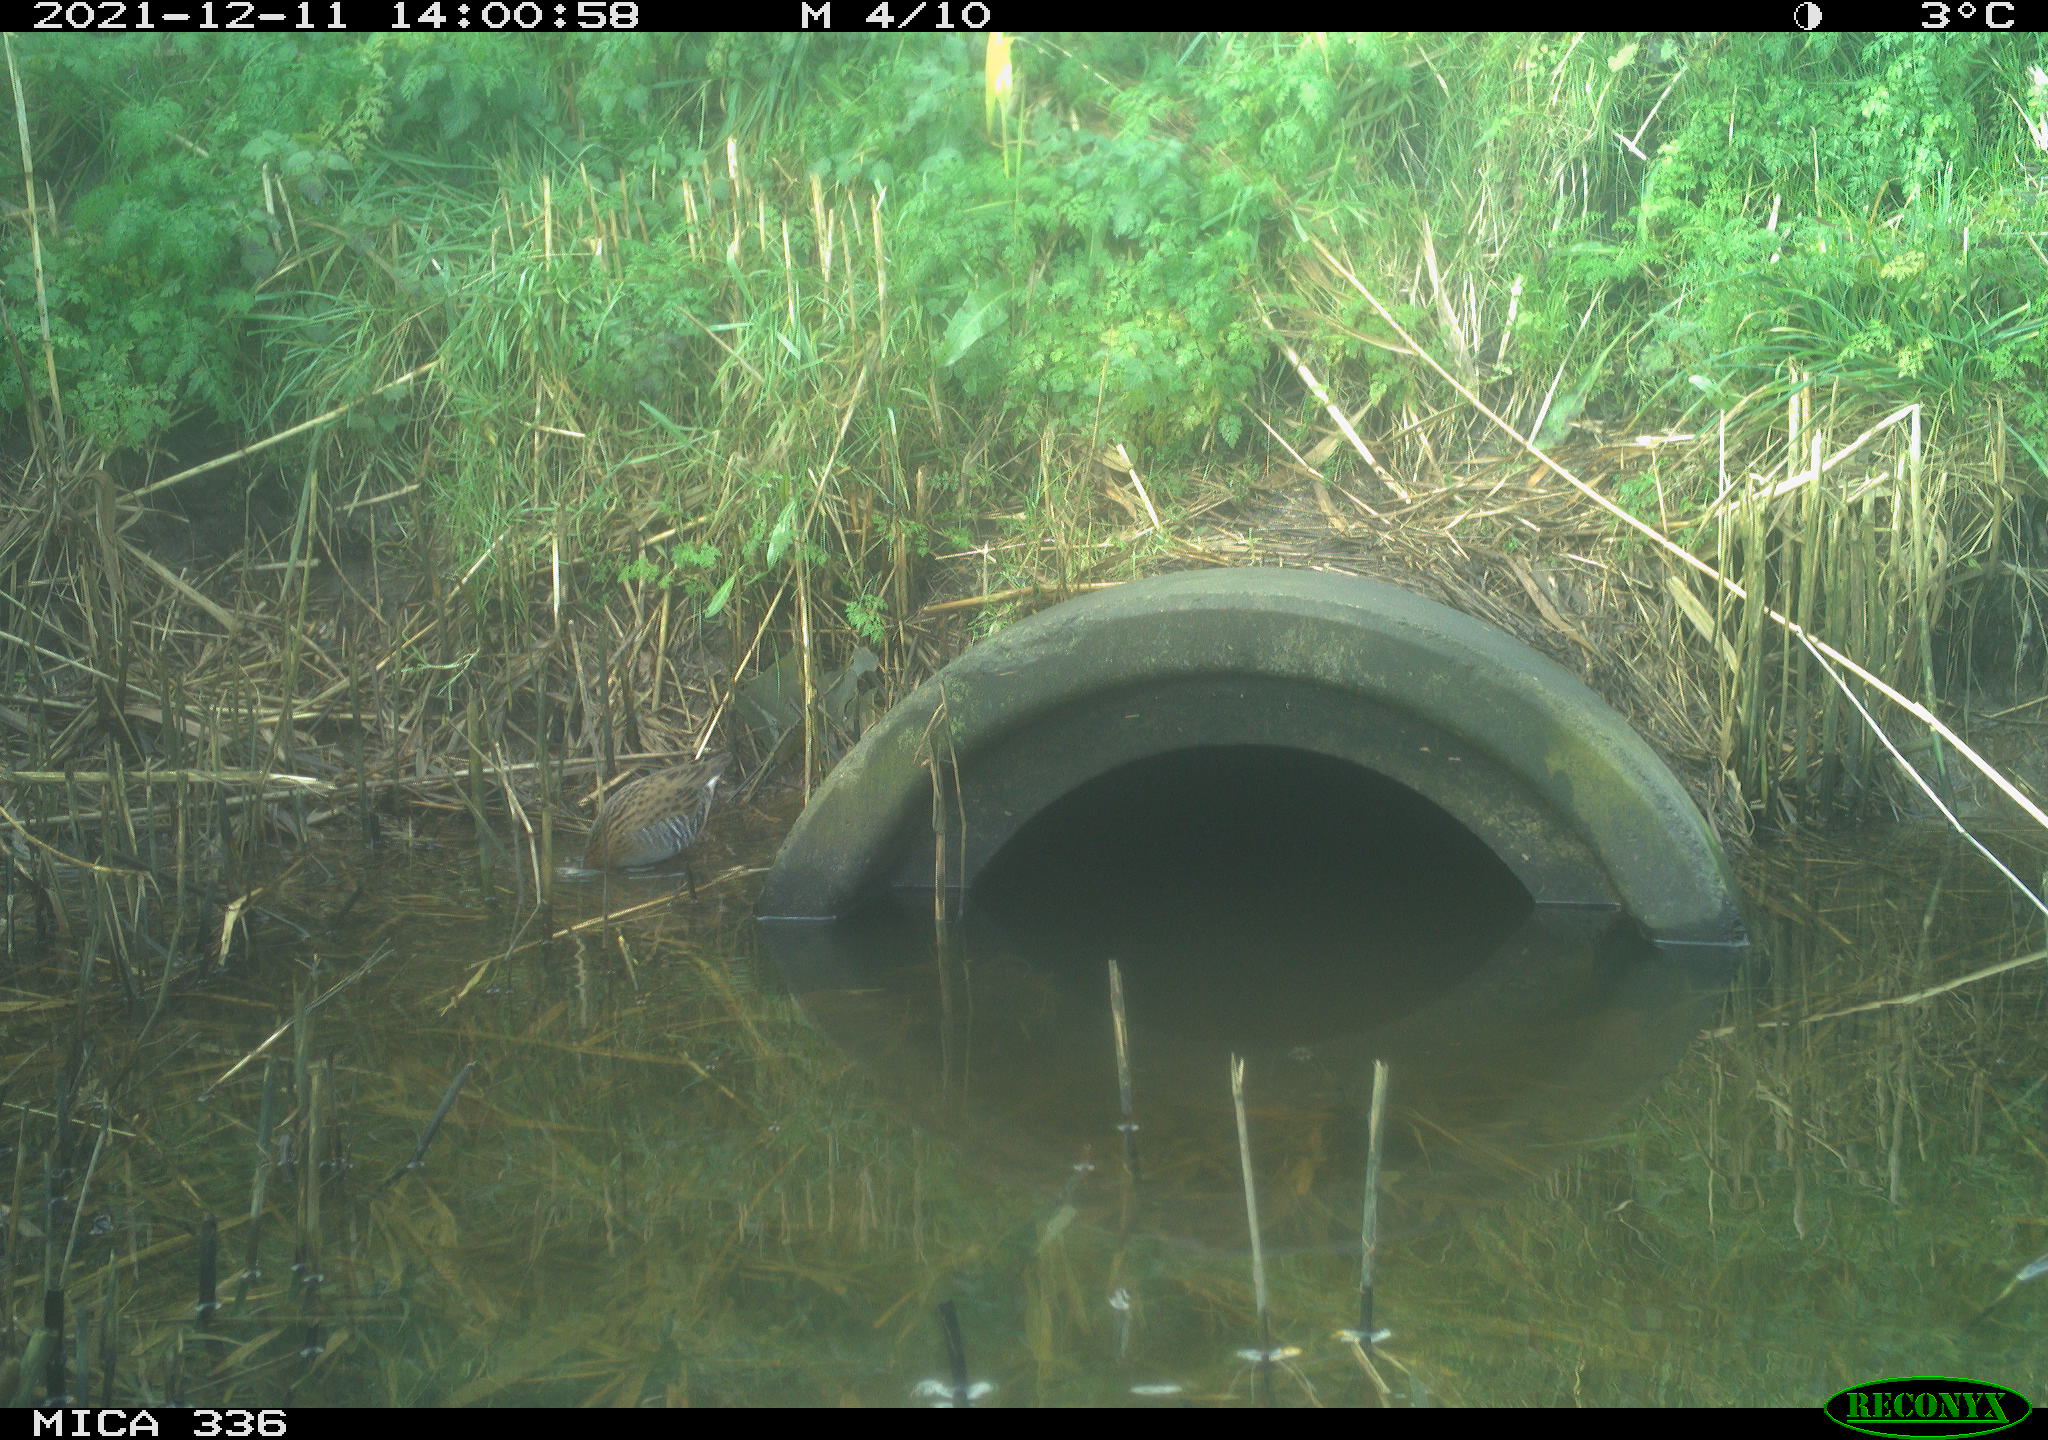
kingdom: Animalia
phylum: Chordata
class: Aves
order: Gruiformes
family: Rallidae
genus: Gallinula
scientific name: Gallinula chloropus
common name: Common moorhen
